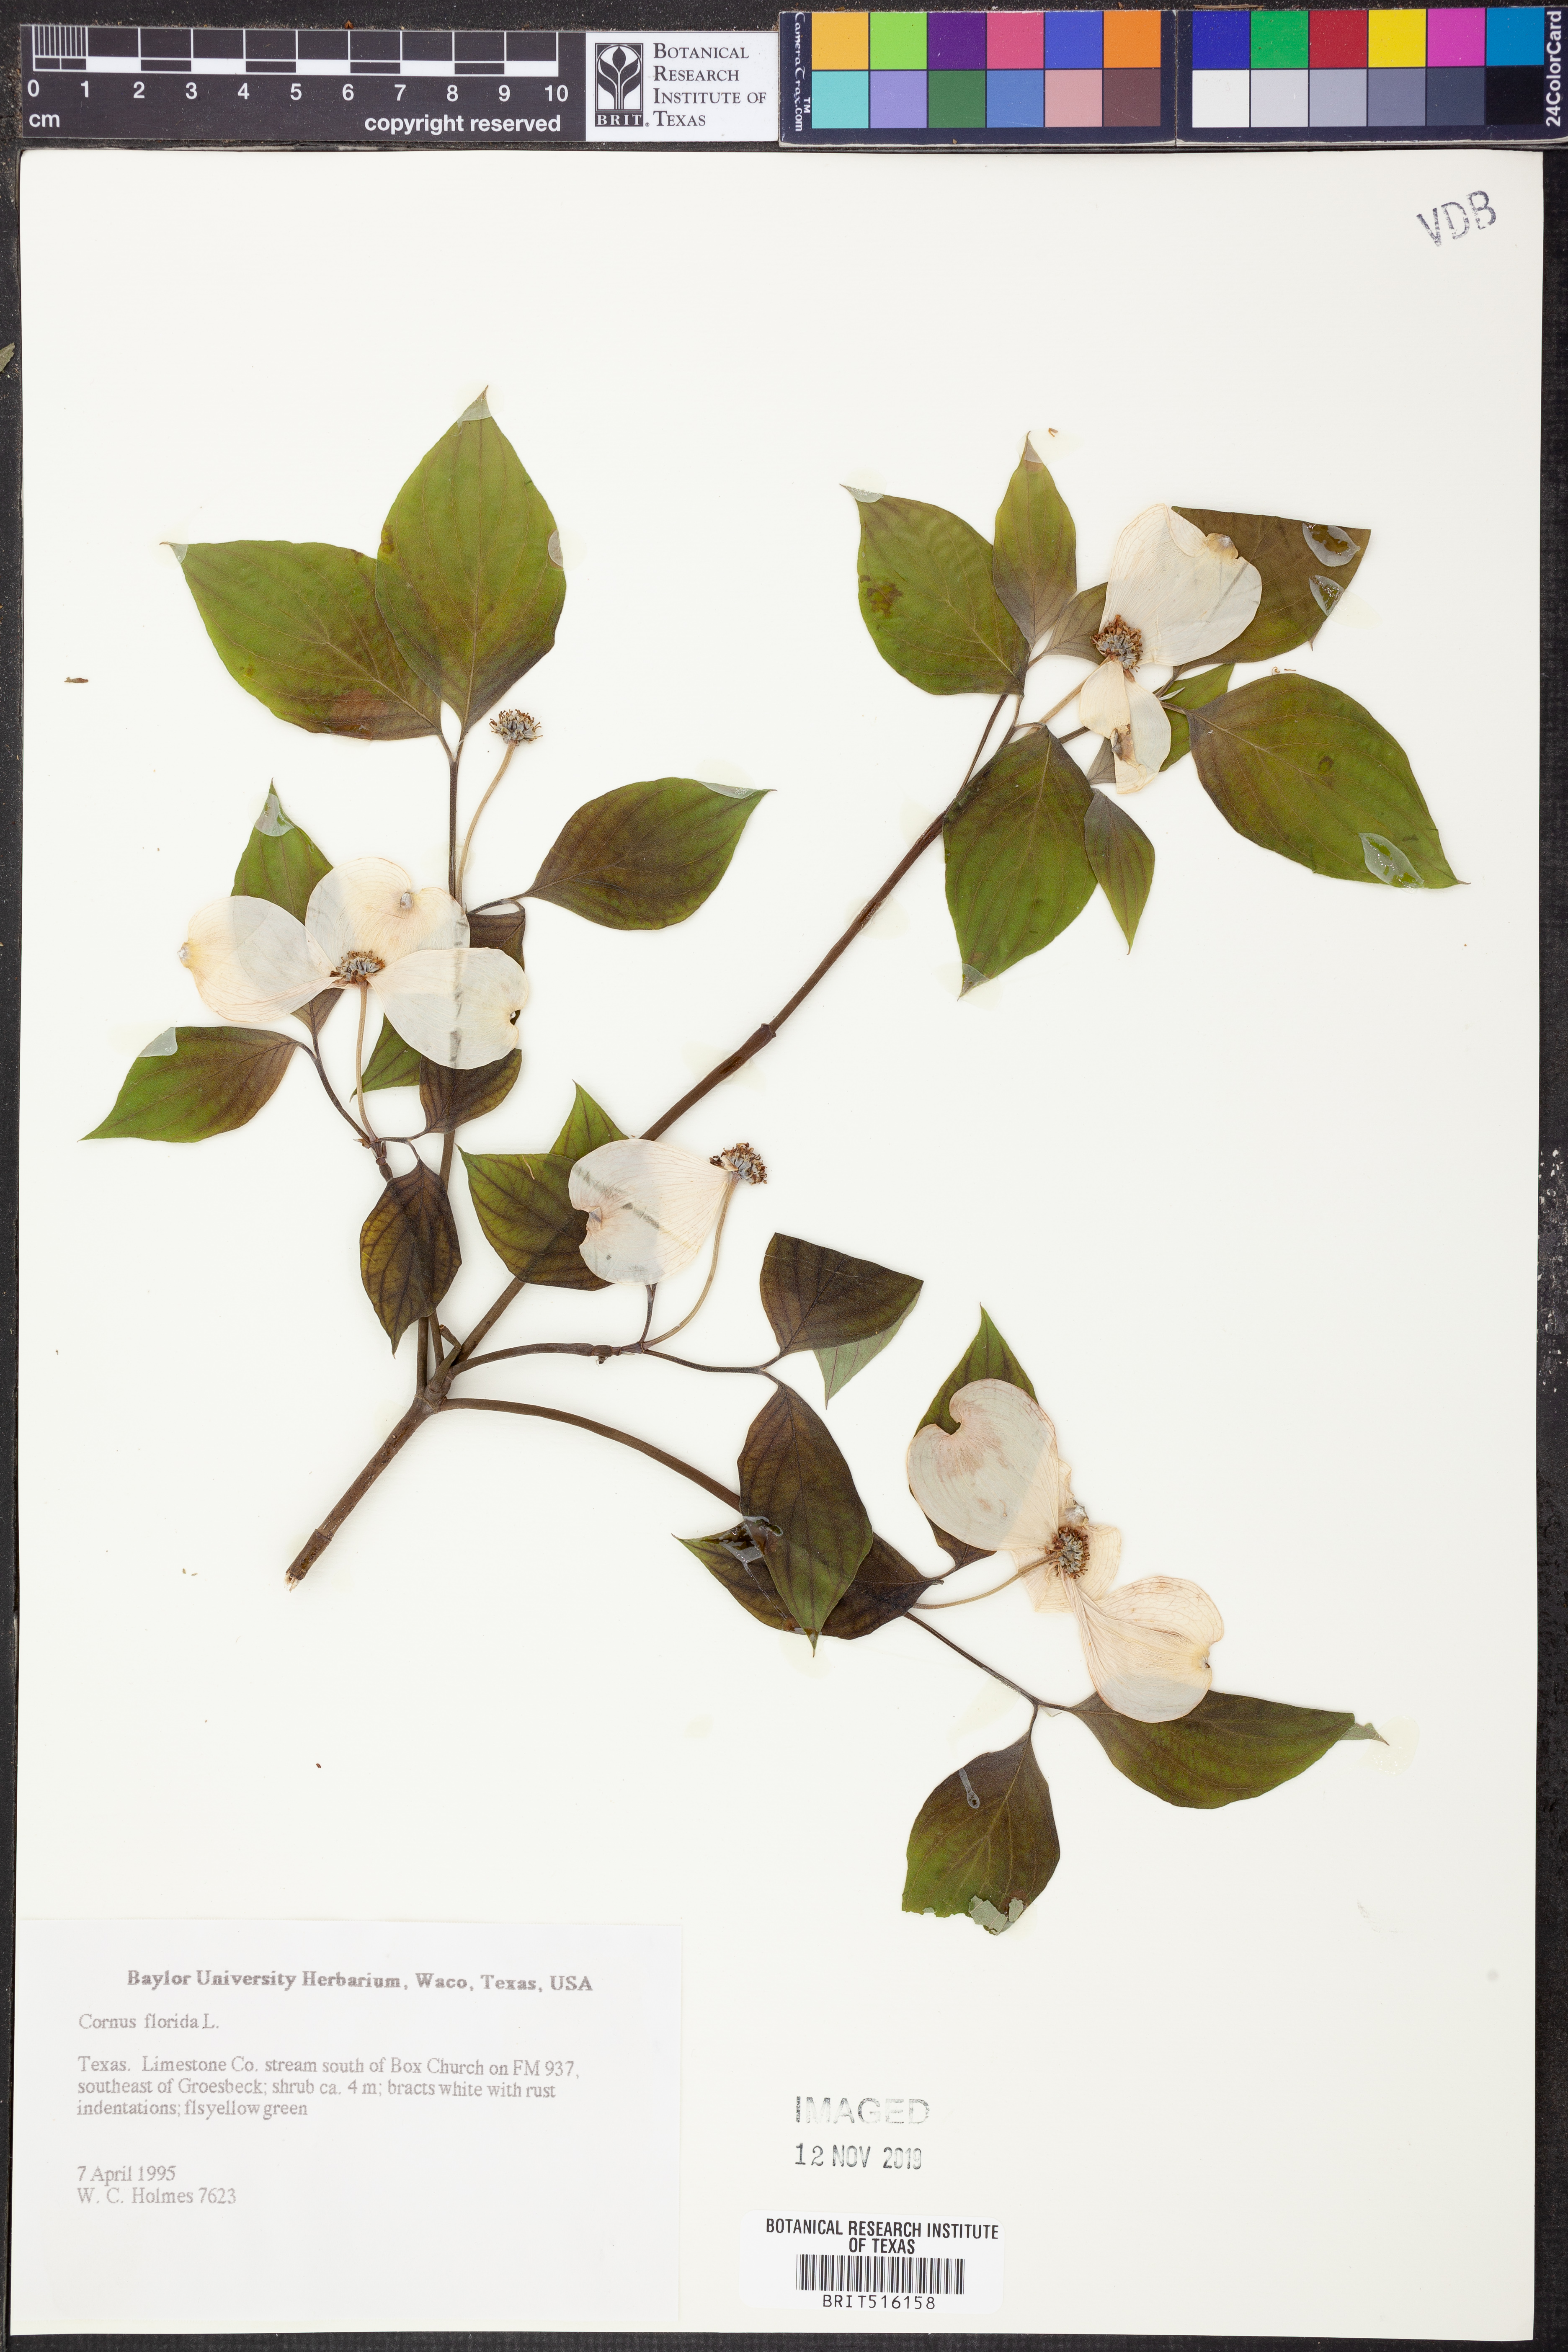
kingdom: Plantae
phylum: Tracheophyta
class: Magnoliopsida
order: Cornales
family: Cornaceae
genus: Cornus
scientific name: Cornus florida
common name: Flowering dogwood
